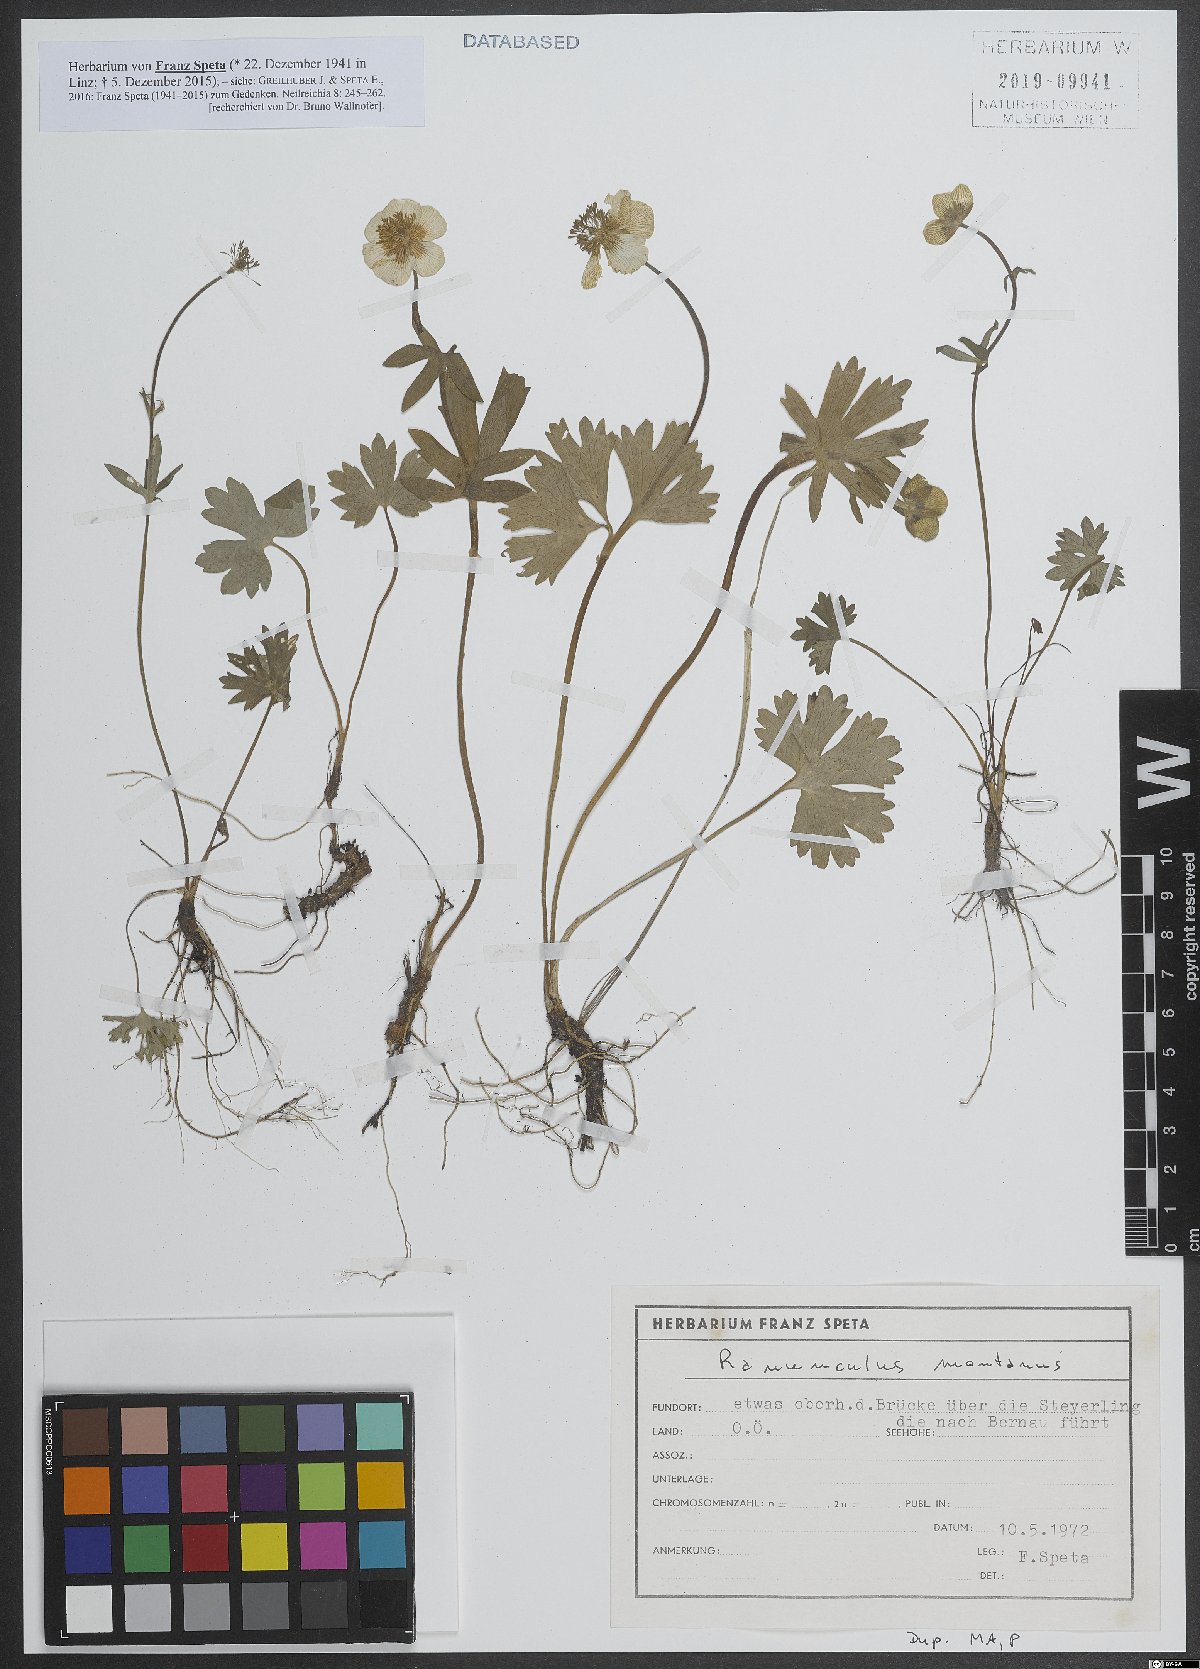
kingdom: Plantae
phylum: Tracheophyta
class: Magnoliopsida
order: Ranunculales
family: Ranunculaceae
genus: Ranunculus
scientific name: Ranunculus montanus
